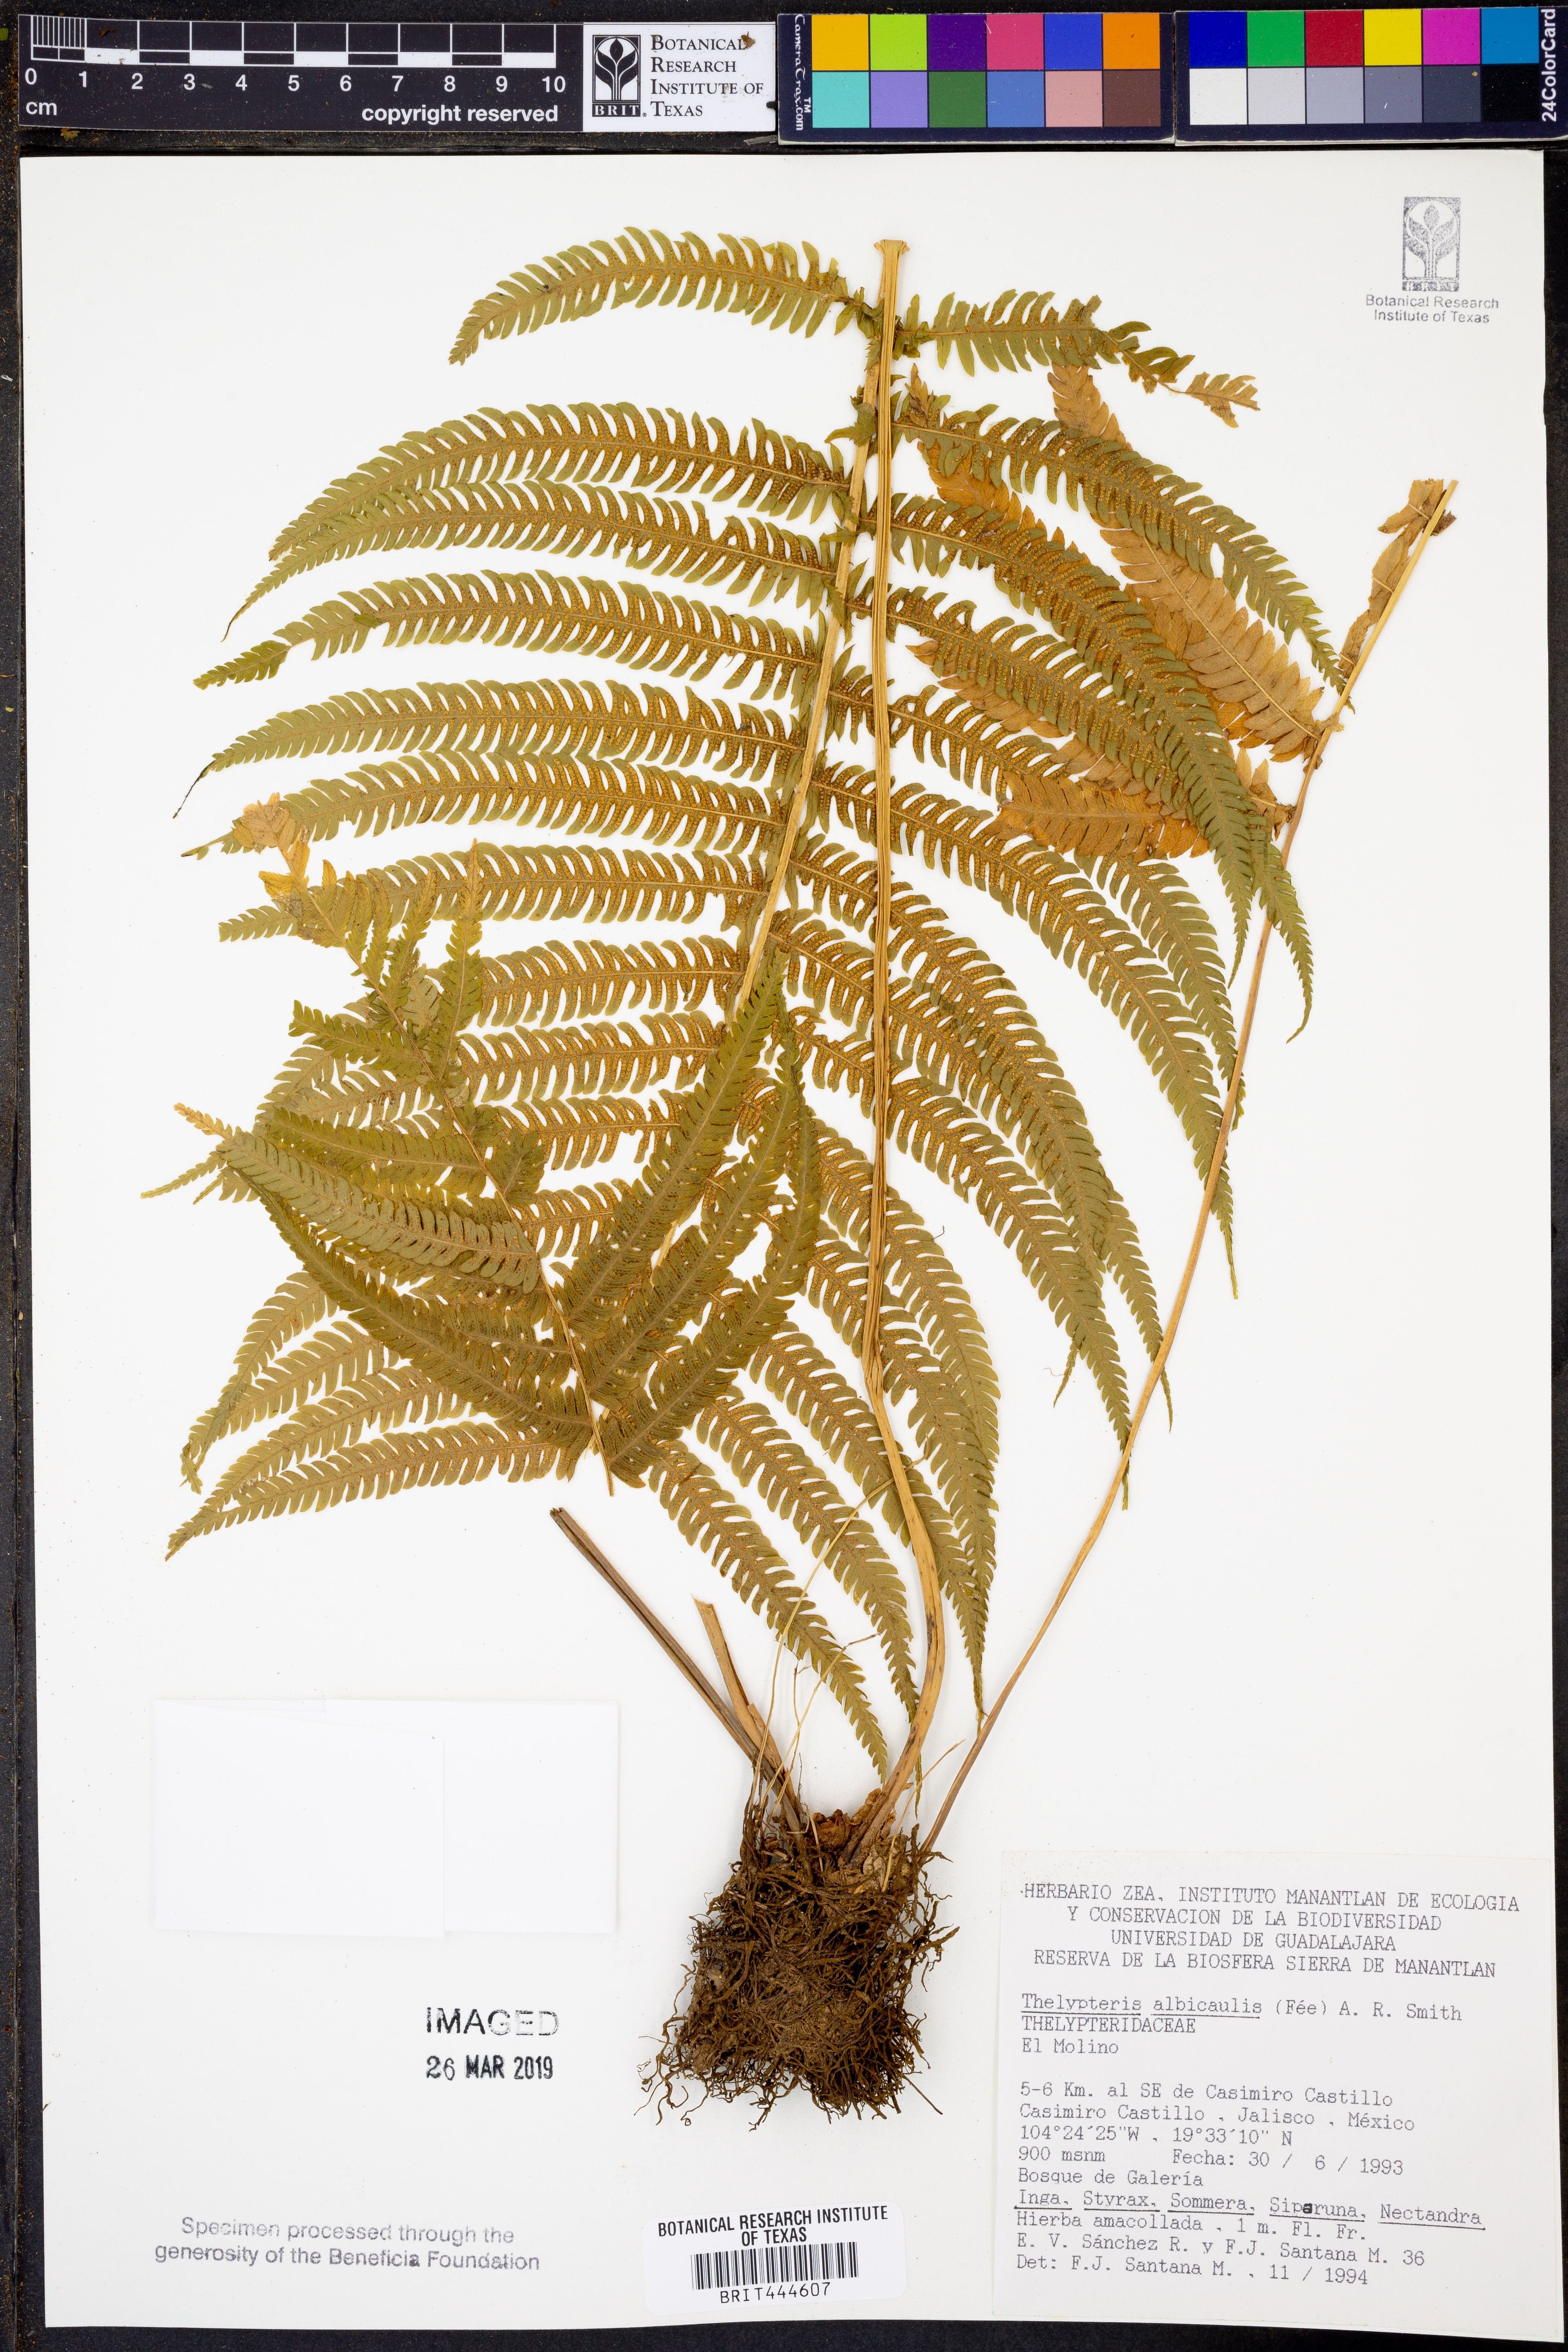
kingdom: Plantae
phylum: Tracheophyta
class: Polypodiopsida
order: Polypodiales
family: Thelypteridaceae
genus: Pelazoneuron
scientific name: Pelazoneuron albicaule
